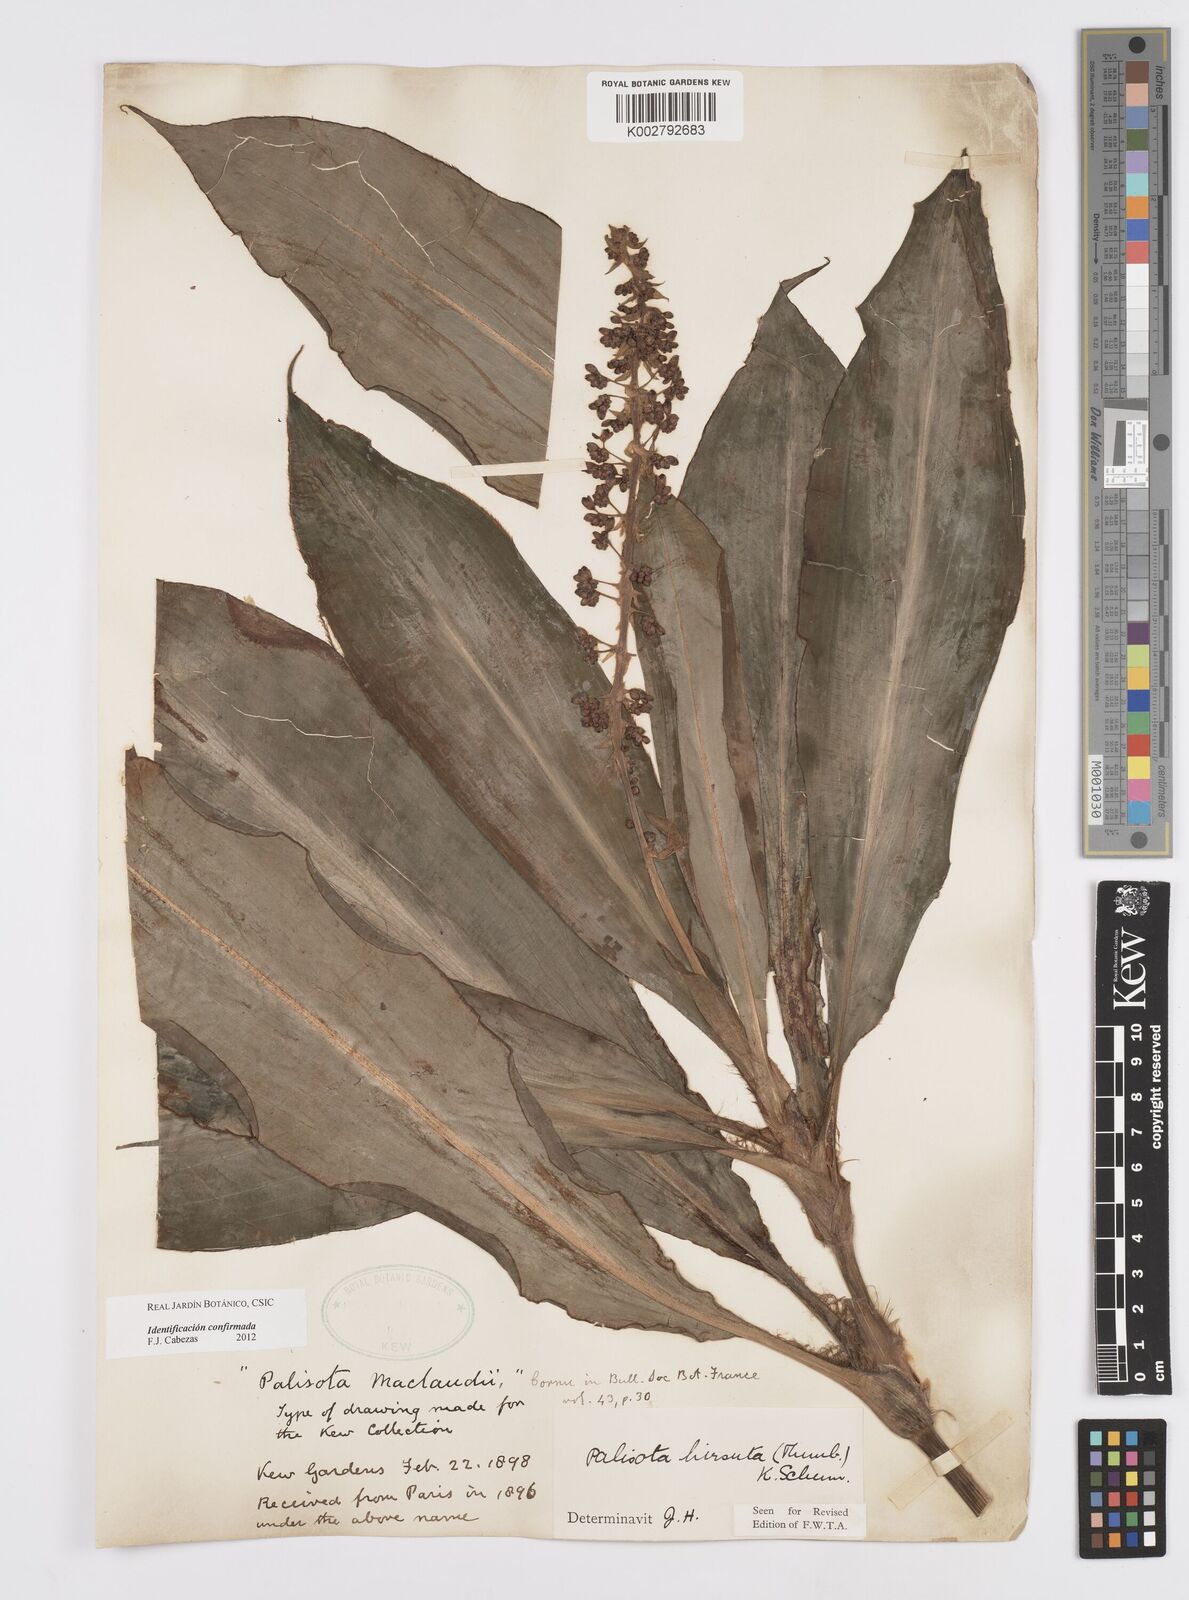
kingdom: Plantae
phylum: Tracheophyta
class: Liliopsida
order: Commelinales
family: Commelinaceae
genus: Palisota
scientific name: Palisota hirsuta
